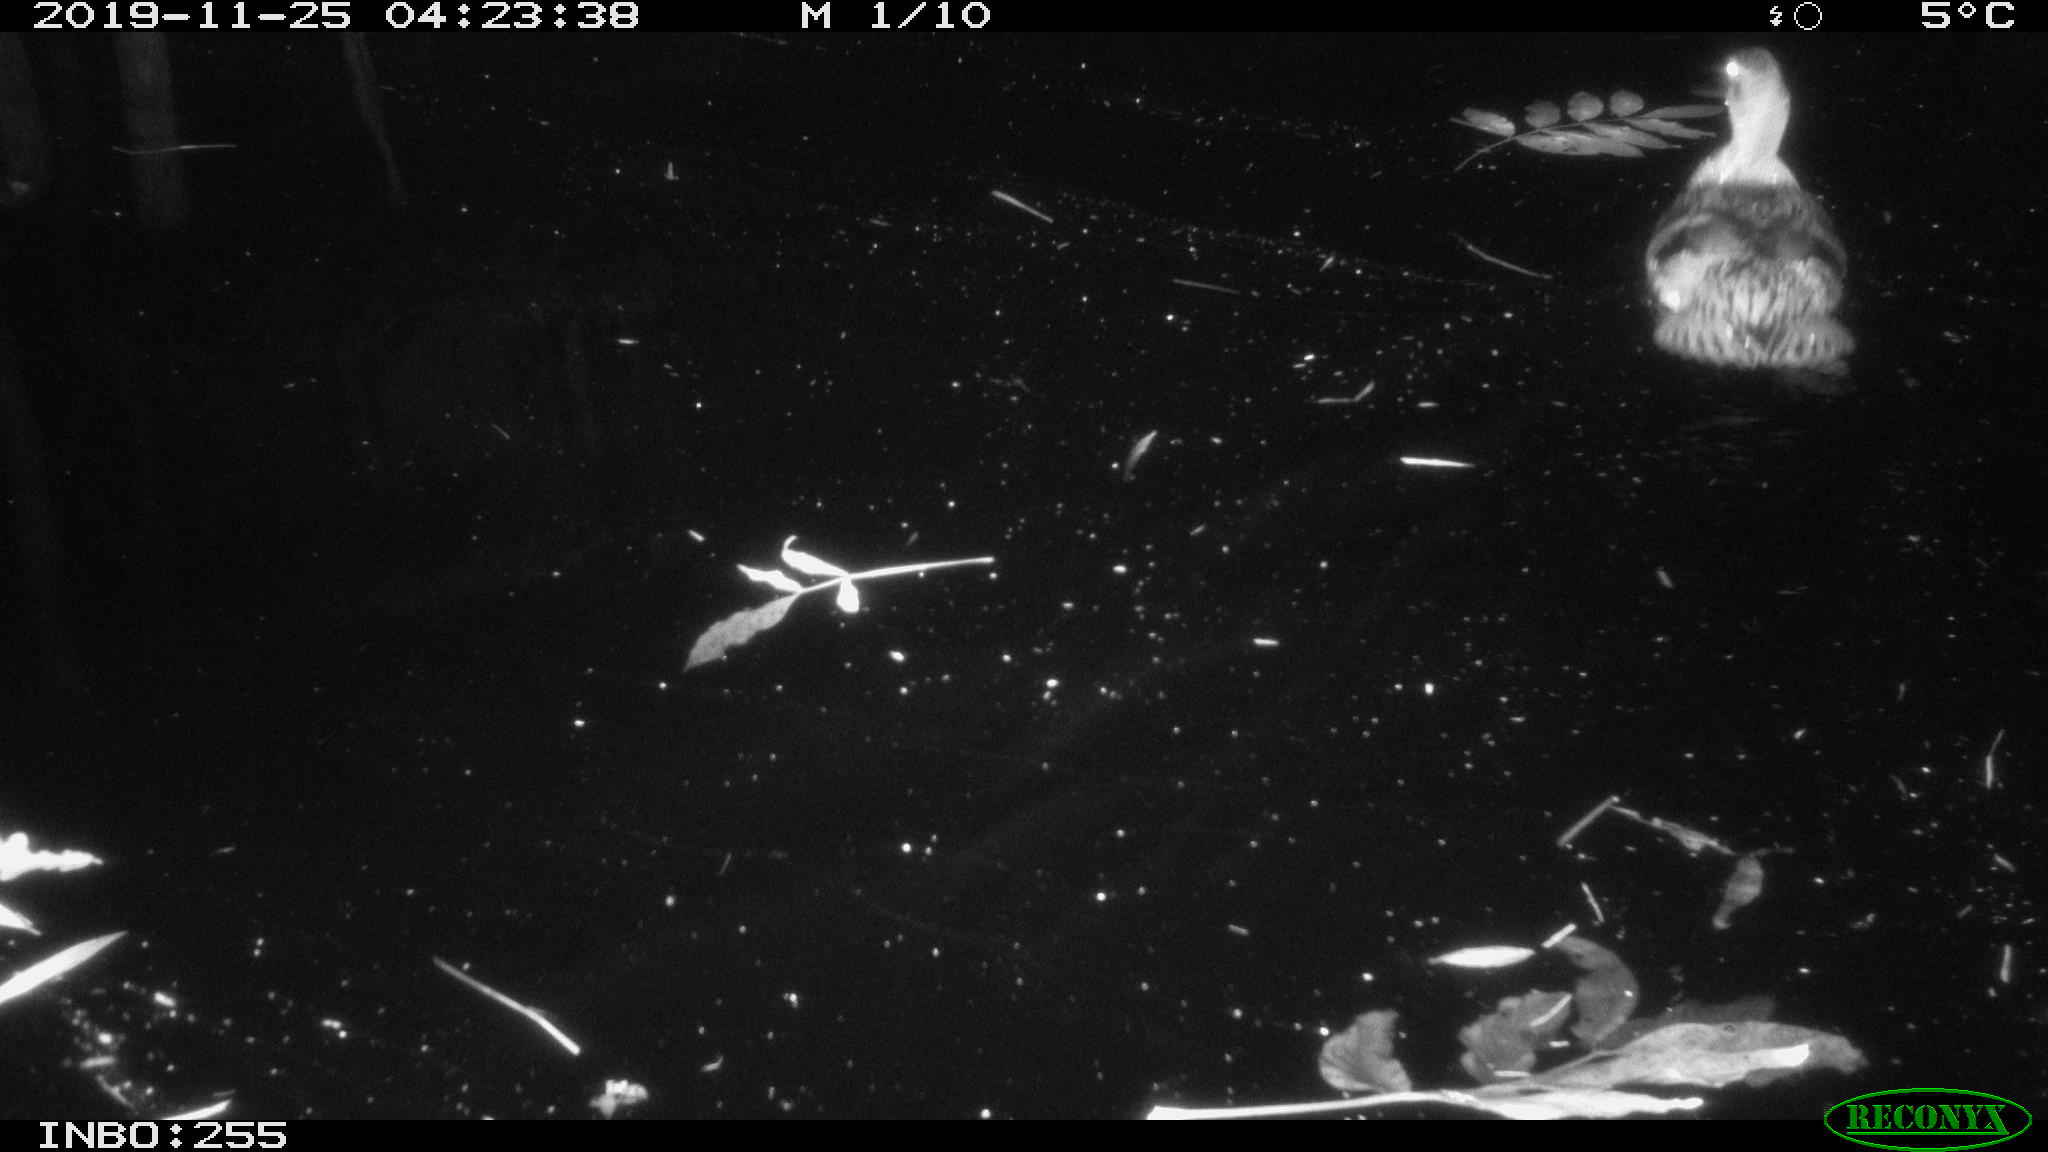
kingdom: Animalia
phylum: Chordata
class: Aves
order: Anseriformes
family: Anatidae
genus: Anas
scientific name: Anas platyrhynchos
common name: Mallard
